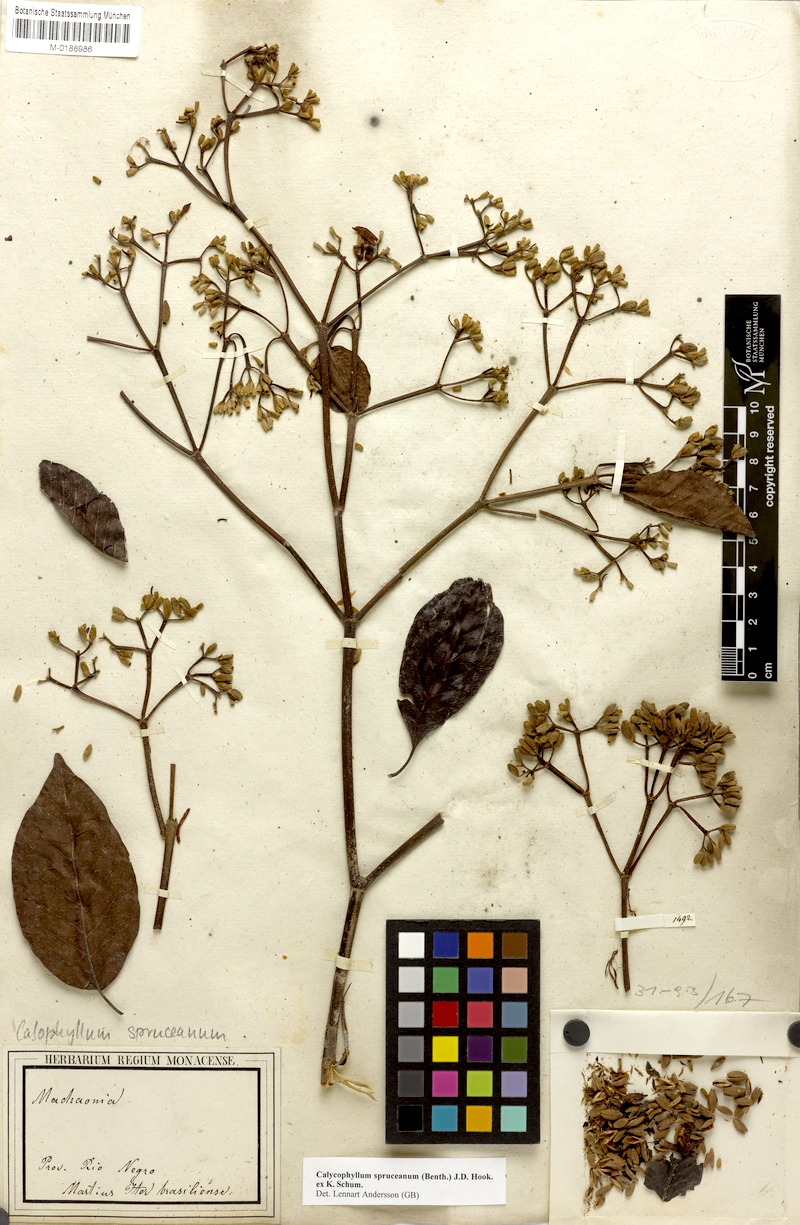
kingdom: Plantae
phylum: Tracheophyta
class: Magnoliopsida
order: Gentianales
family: Rubiaceae
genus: Calycophyllum
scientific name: Calycophyllum spruceanum
